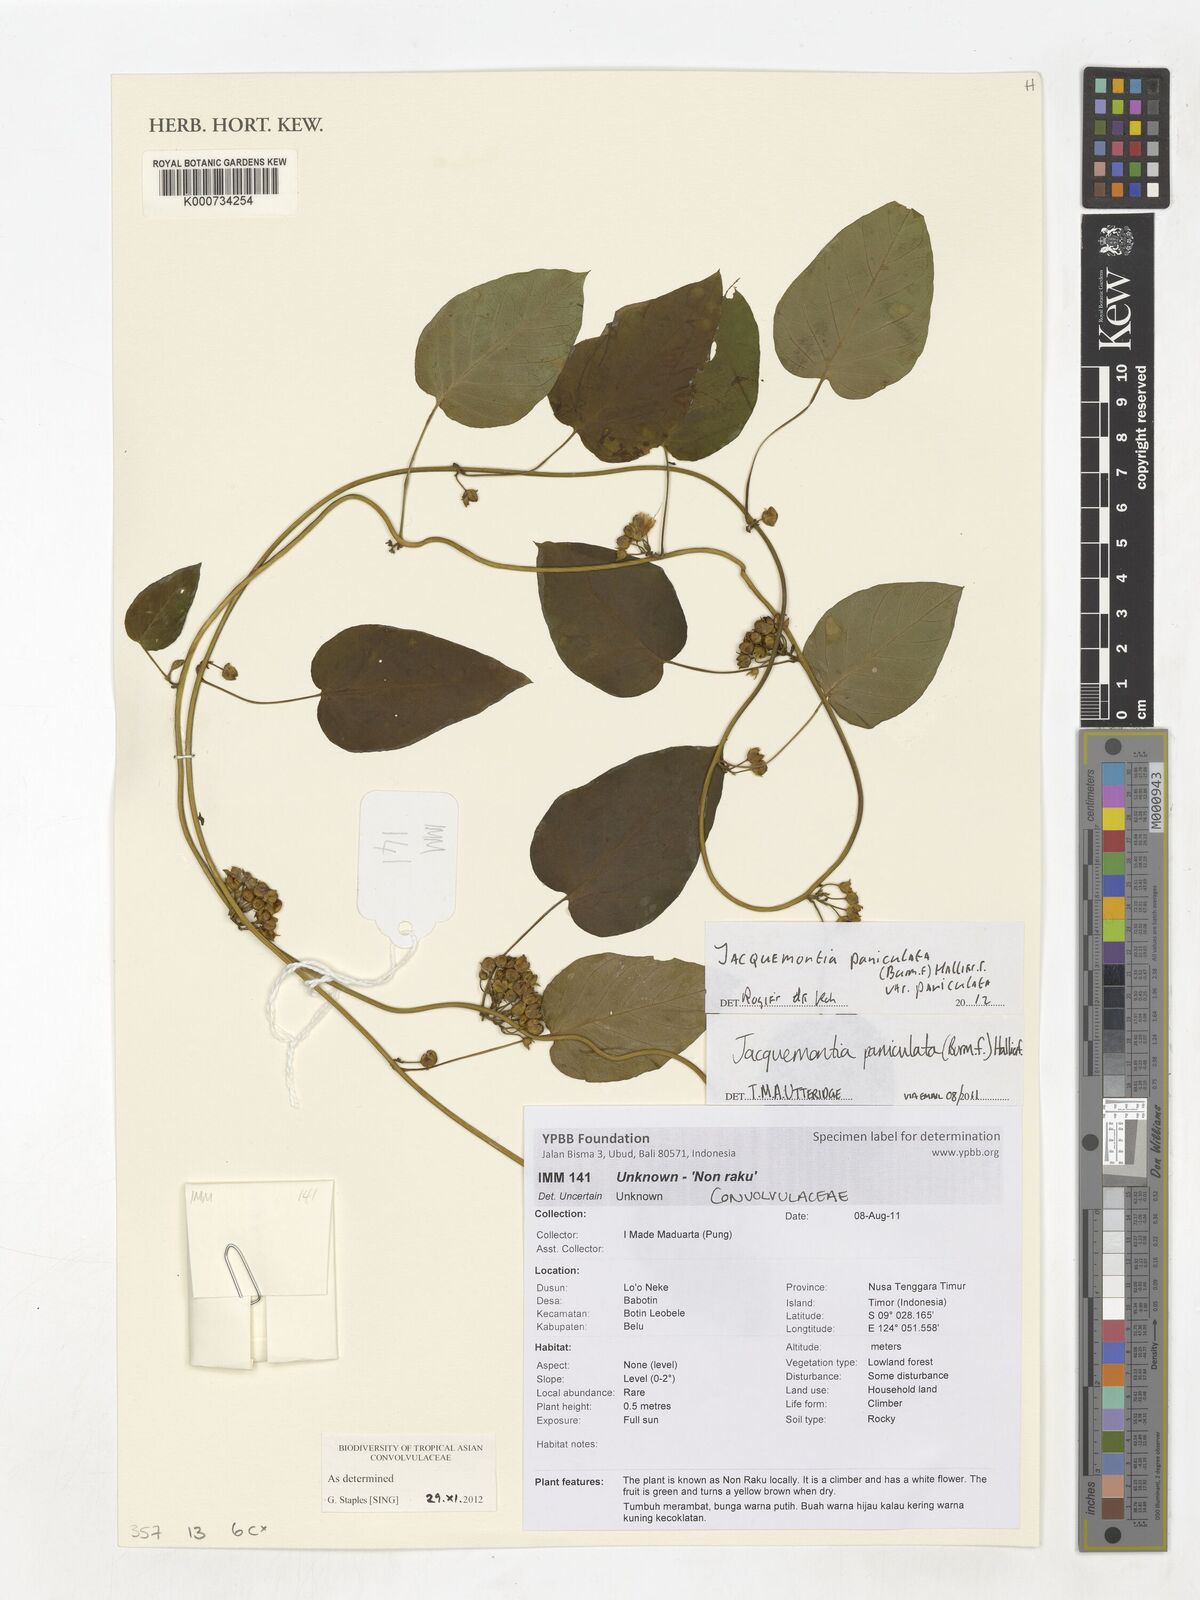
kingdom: Plantae
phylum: Tracheophyta
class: Magnoliopsida
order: Solanales
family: Convolvulaceae
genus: Jacquemontia
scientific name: Jacquemontia paniculata
